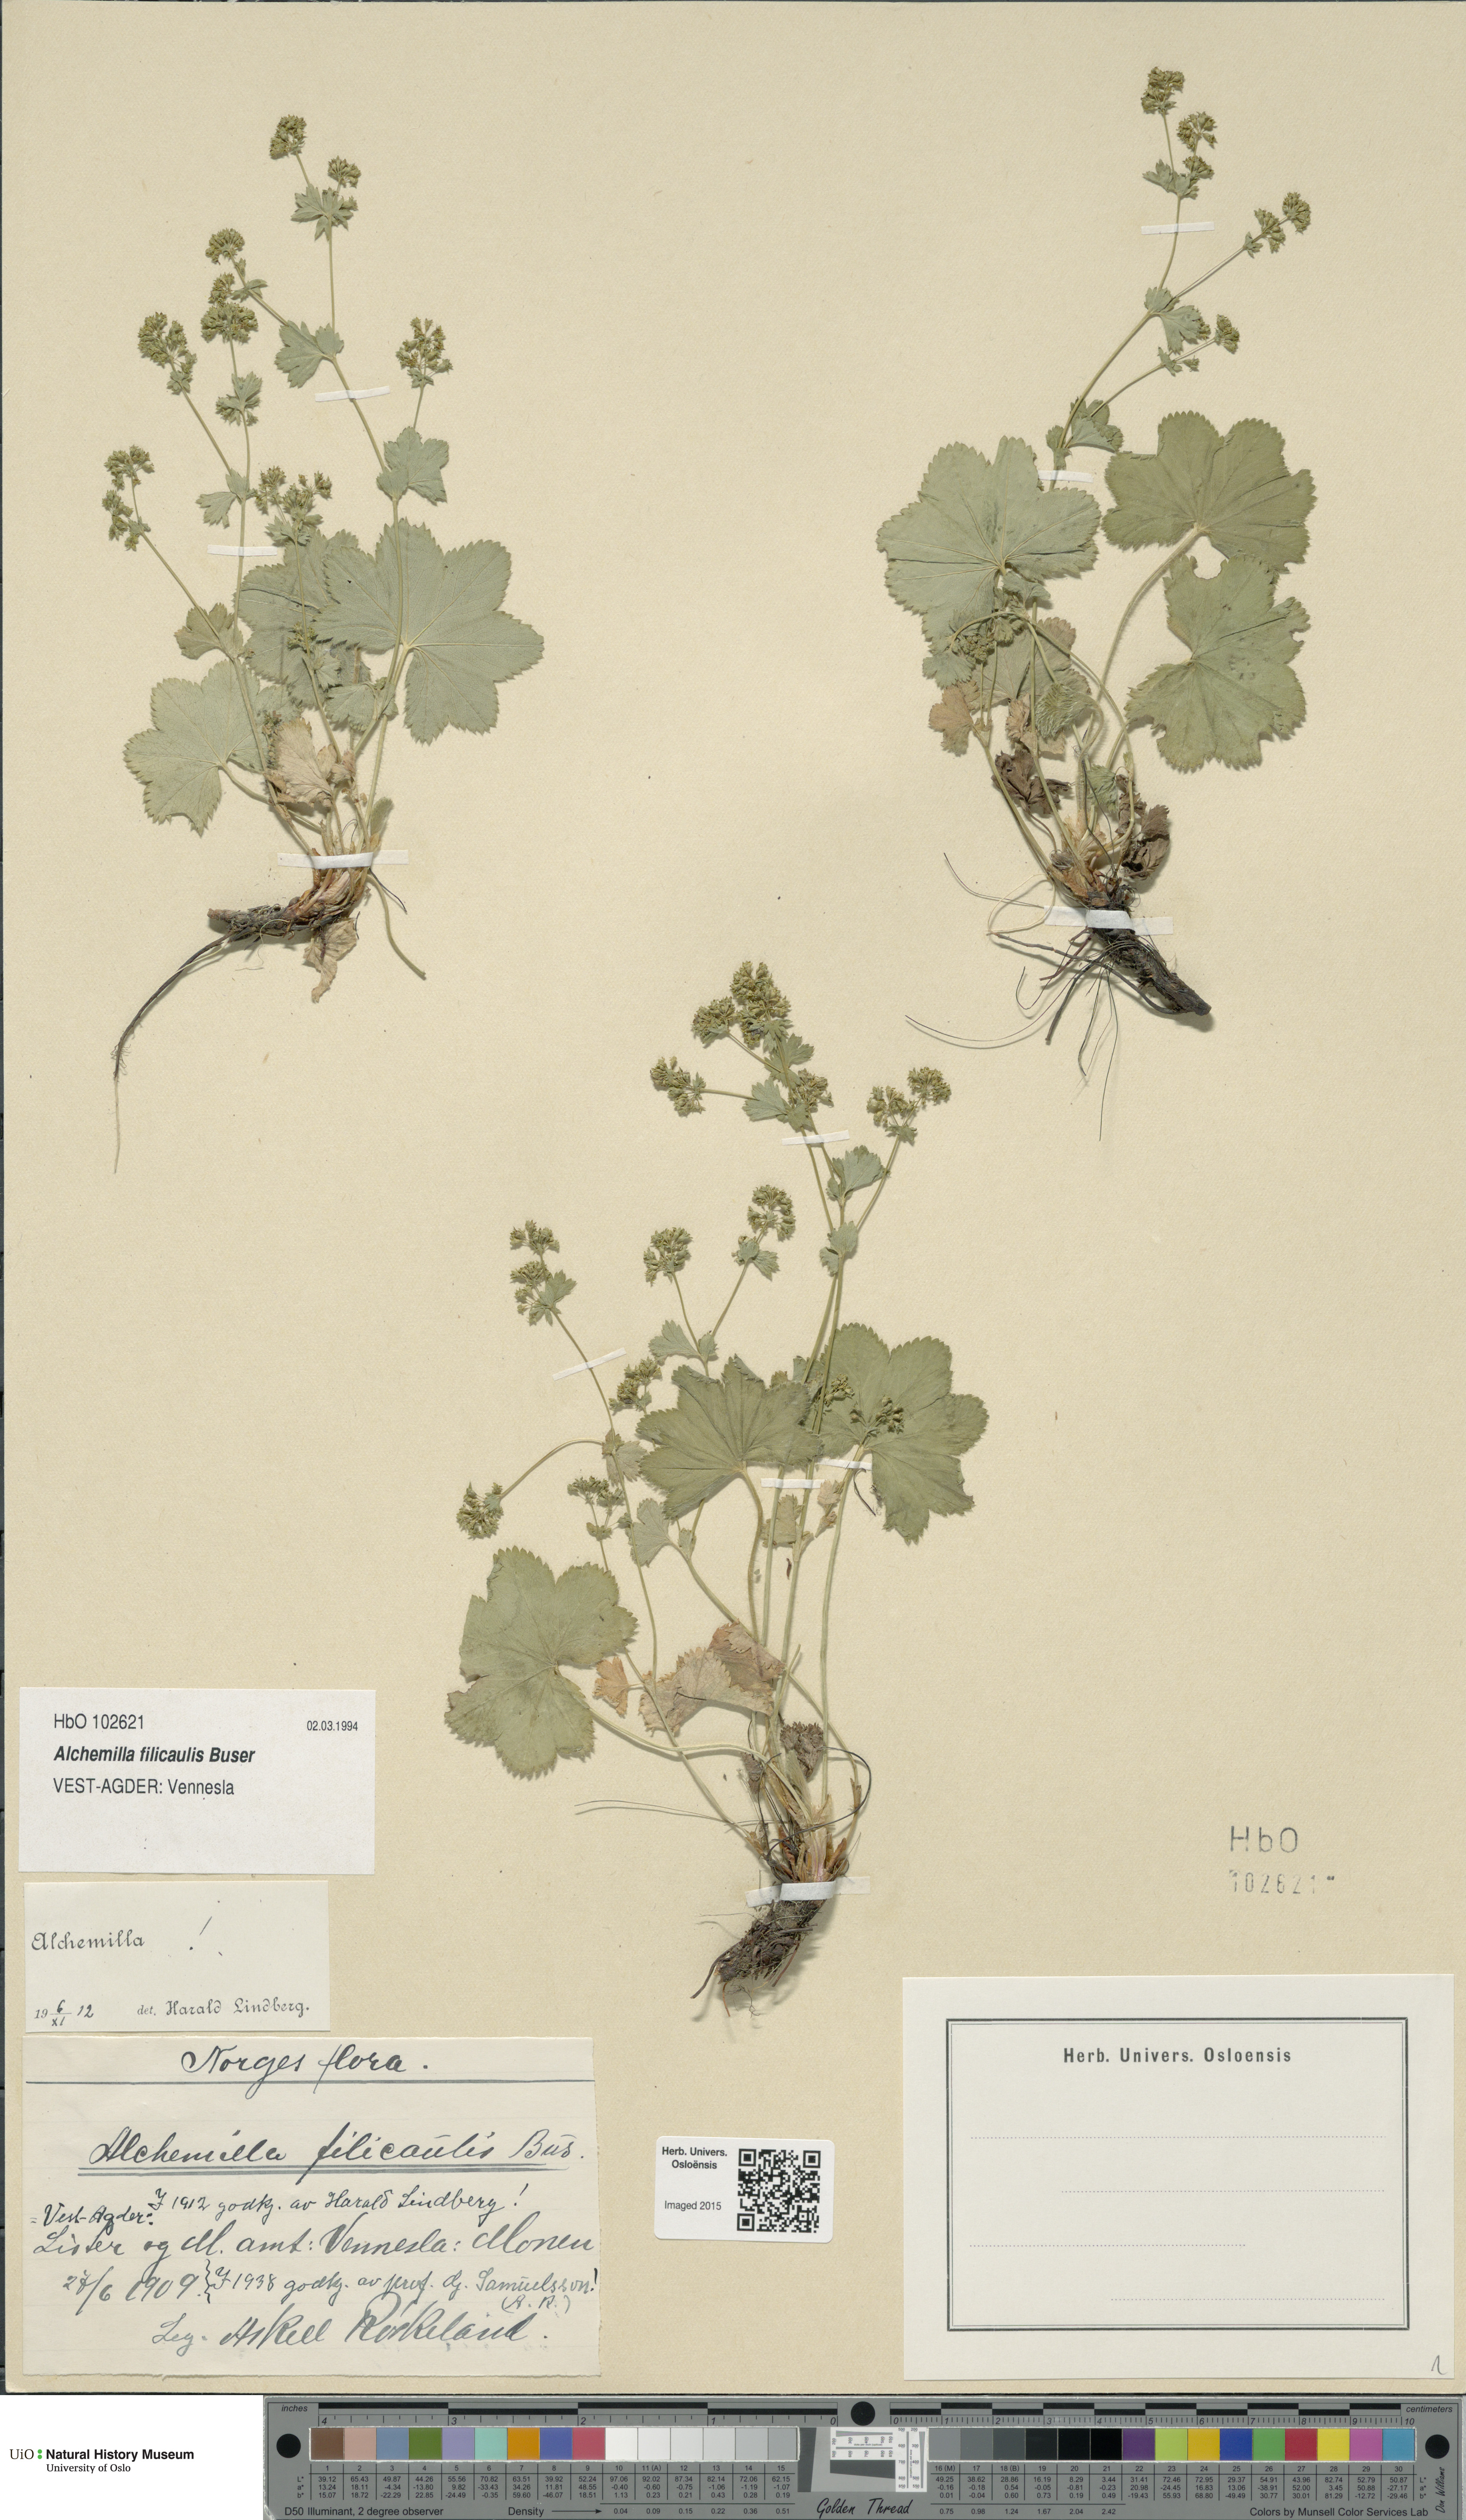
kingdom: Plantae
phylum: Tracheophyta
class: Magnoliopsida
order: Rosales
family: Rosaceae
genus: Alchemilla
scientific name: Alchemilla filicaulis
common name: Hairy lady's-mantle
